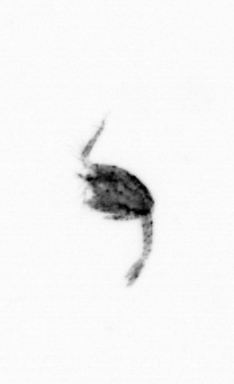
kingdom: Animalia
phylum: Arthropoda
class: Copepoda
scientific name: Copepoda
